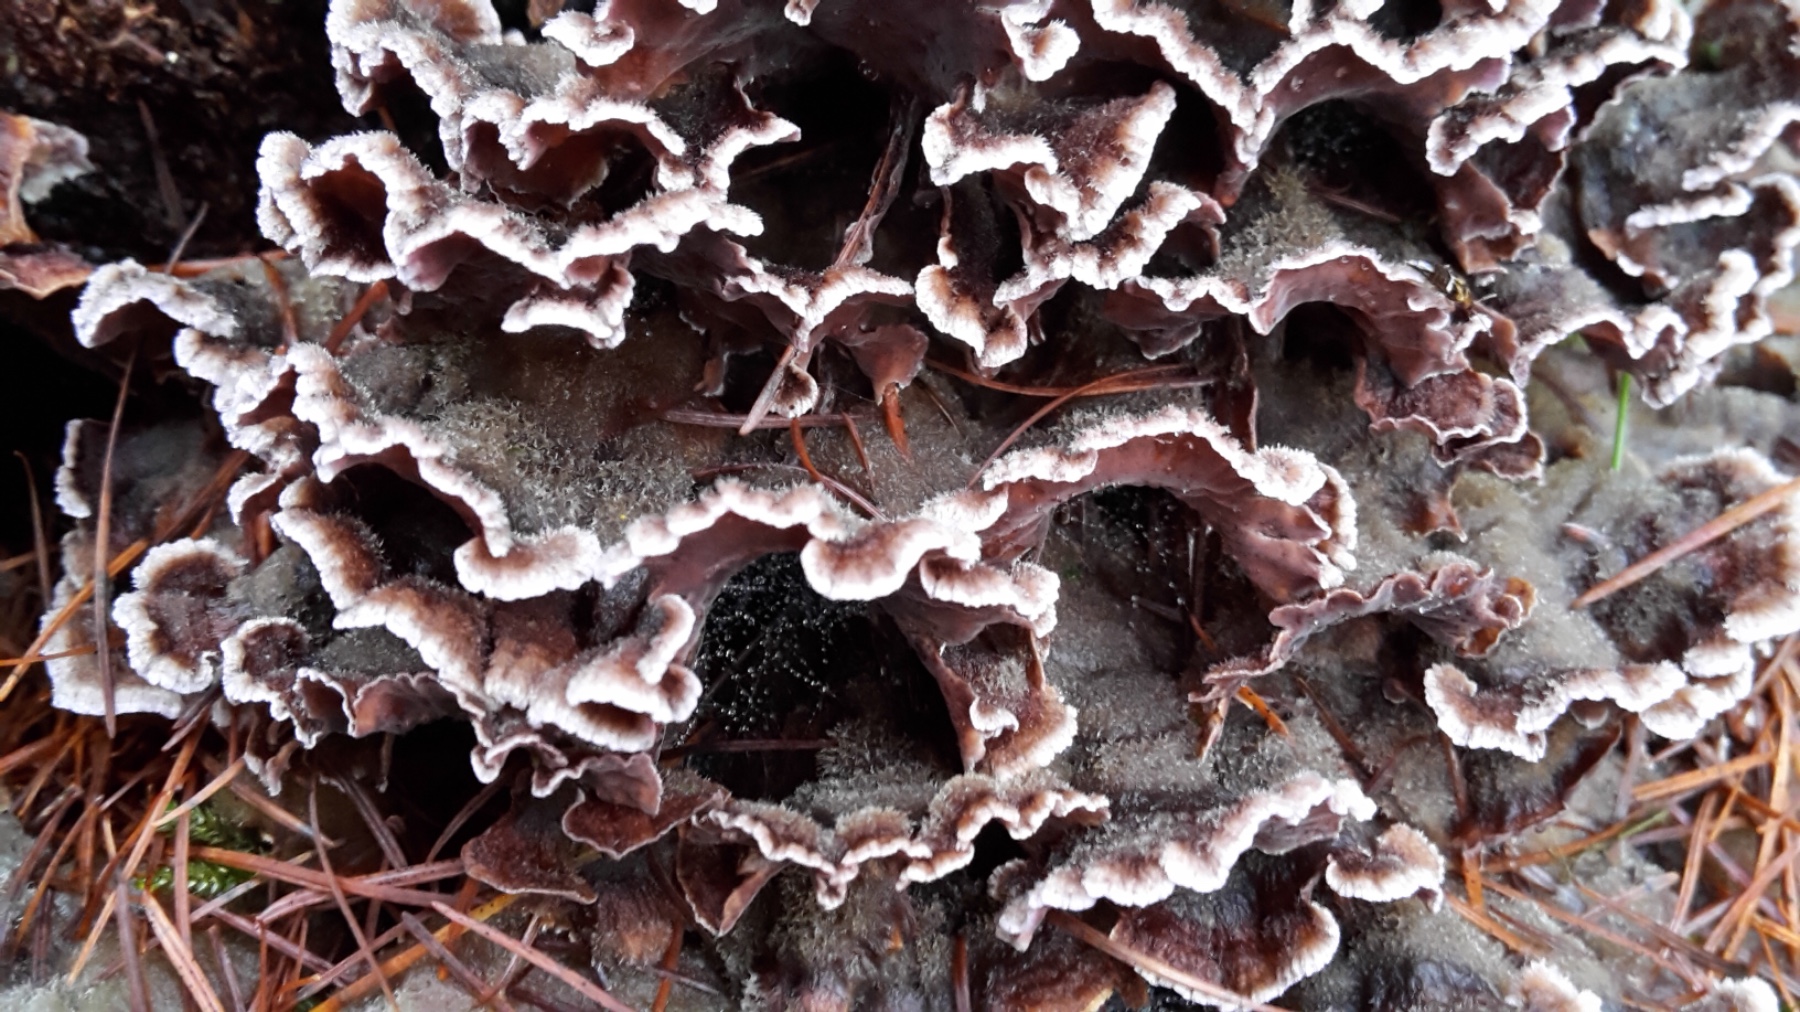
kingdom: Fungi
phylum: Basidiomycota
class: Agaricomycetes
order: Agaricales
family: Cyphellaceae
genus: Chondrostereum
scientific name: Chondrostereum purpureum
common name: purpurlædersvamp
